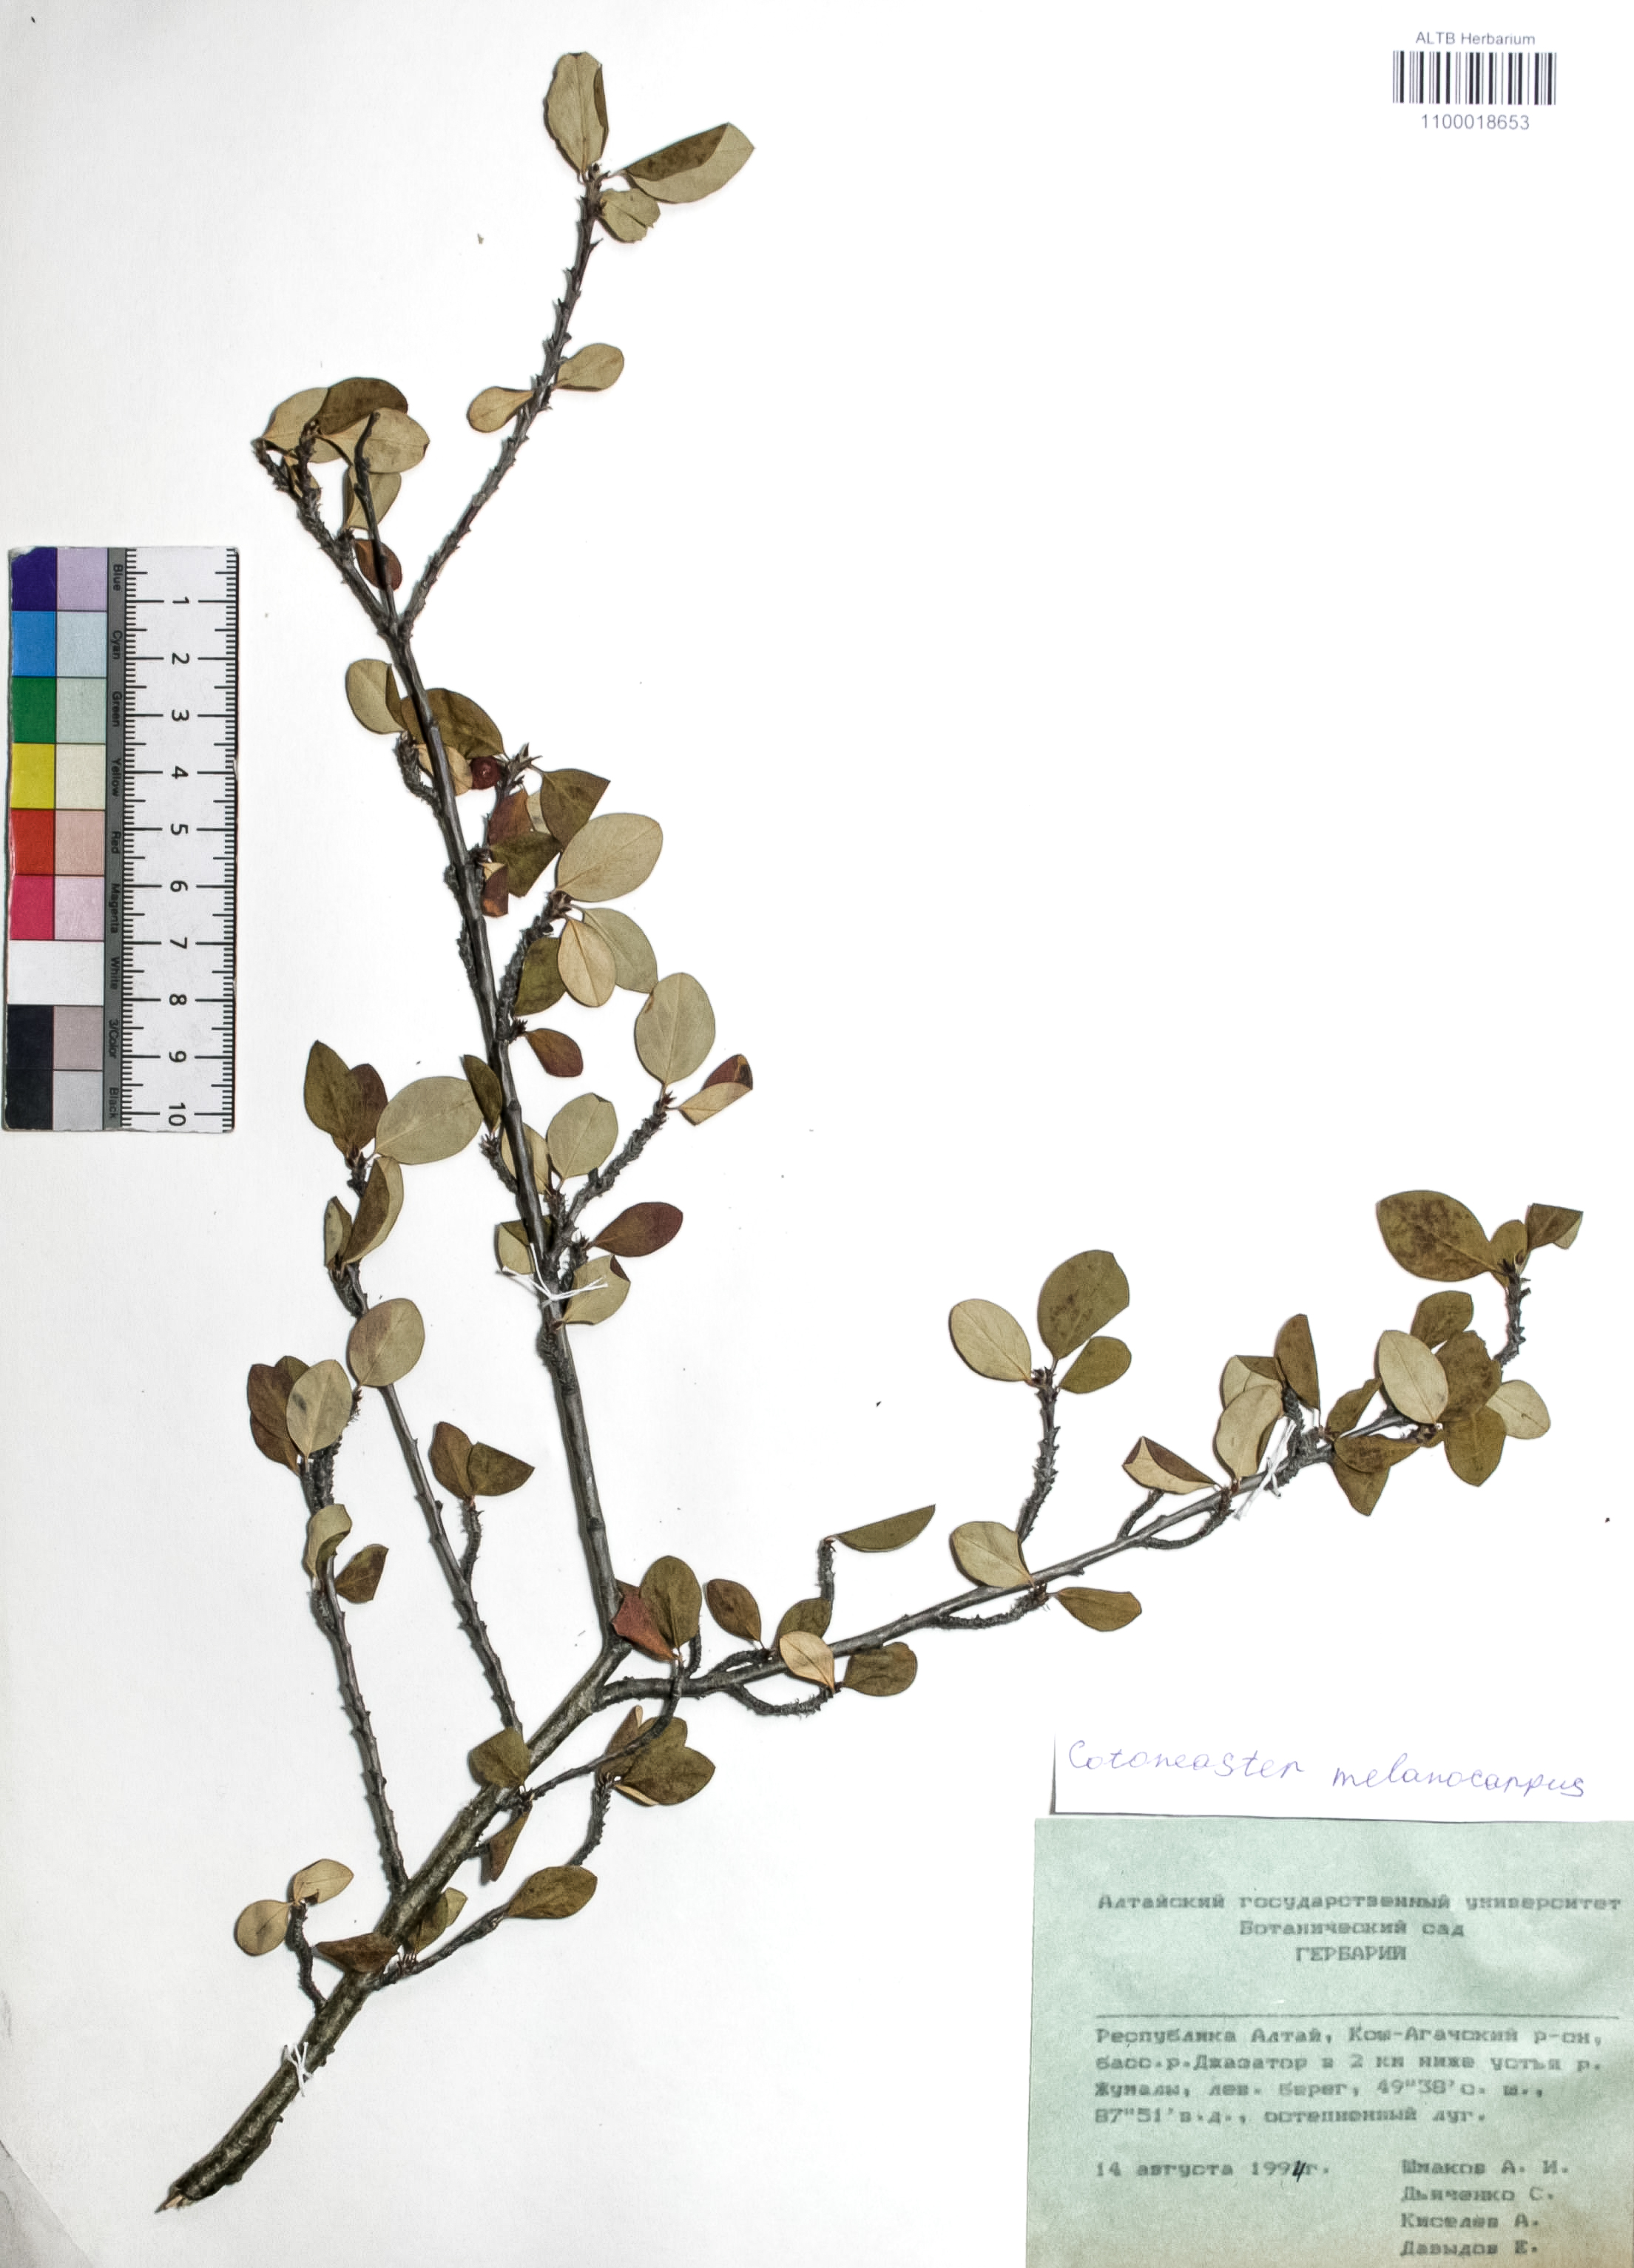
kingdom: Plantae
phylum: Tracheophyta
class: Magnoliopsida
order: Rosales
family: Rosaceae
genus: Cotoneaster
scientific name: Cotoneaster niger
